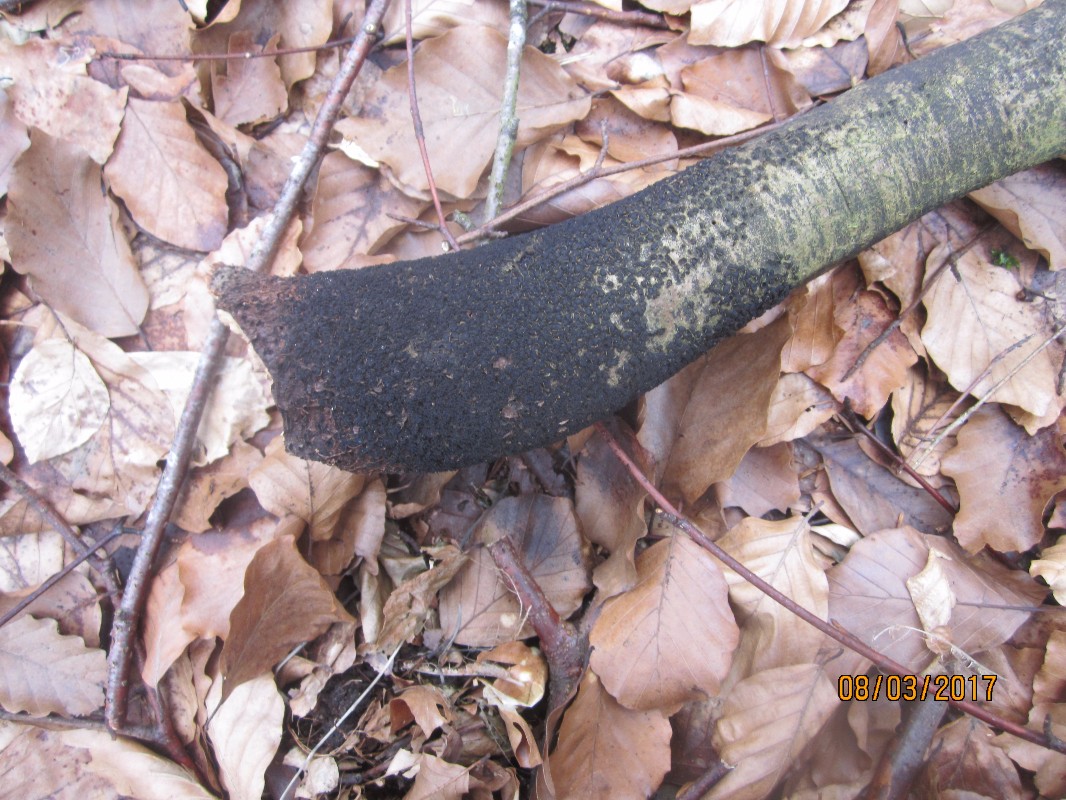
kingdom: Fungi
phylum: Ascomycota
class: Sordariomycetes
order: Xylariales
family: Melogrammataceae
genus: Melogramma
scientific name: Melogramma spiniferum
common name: bøgefod-kulhals
